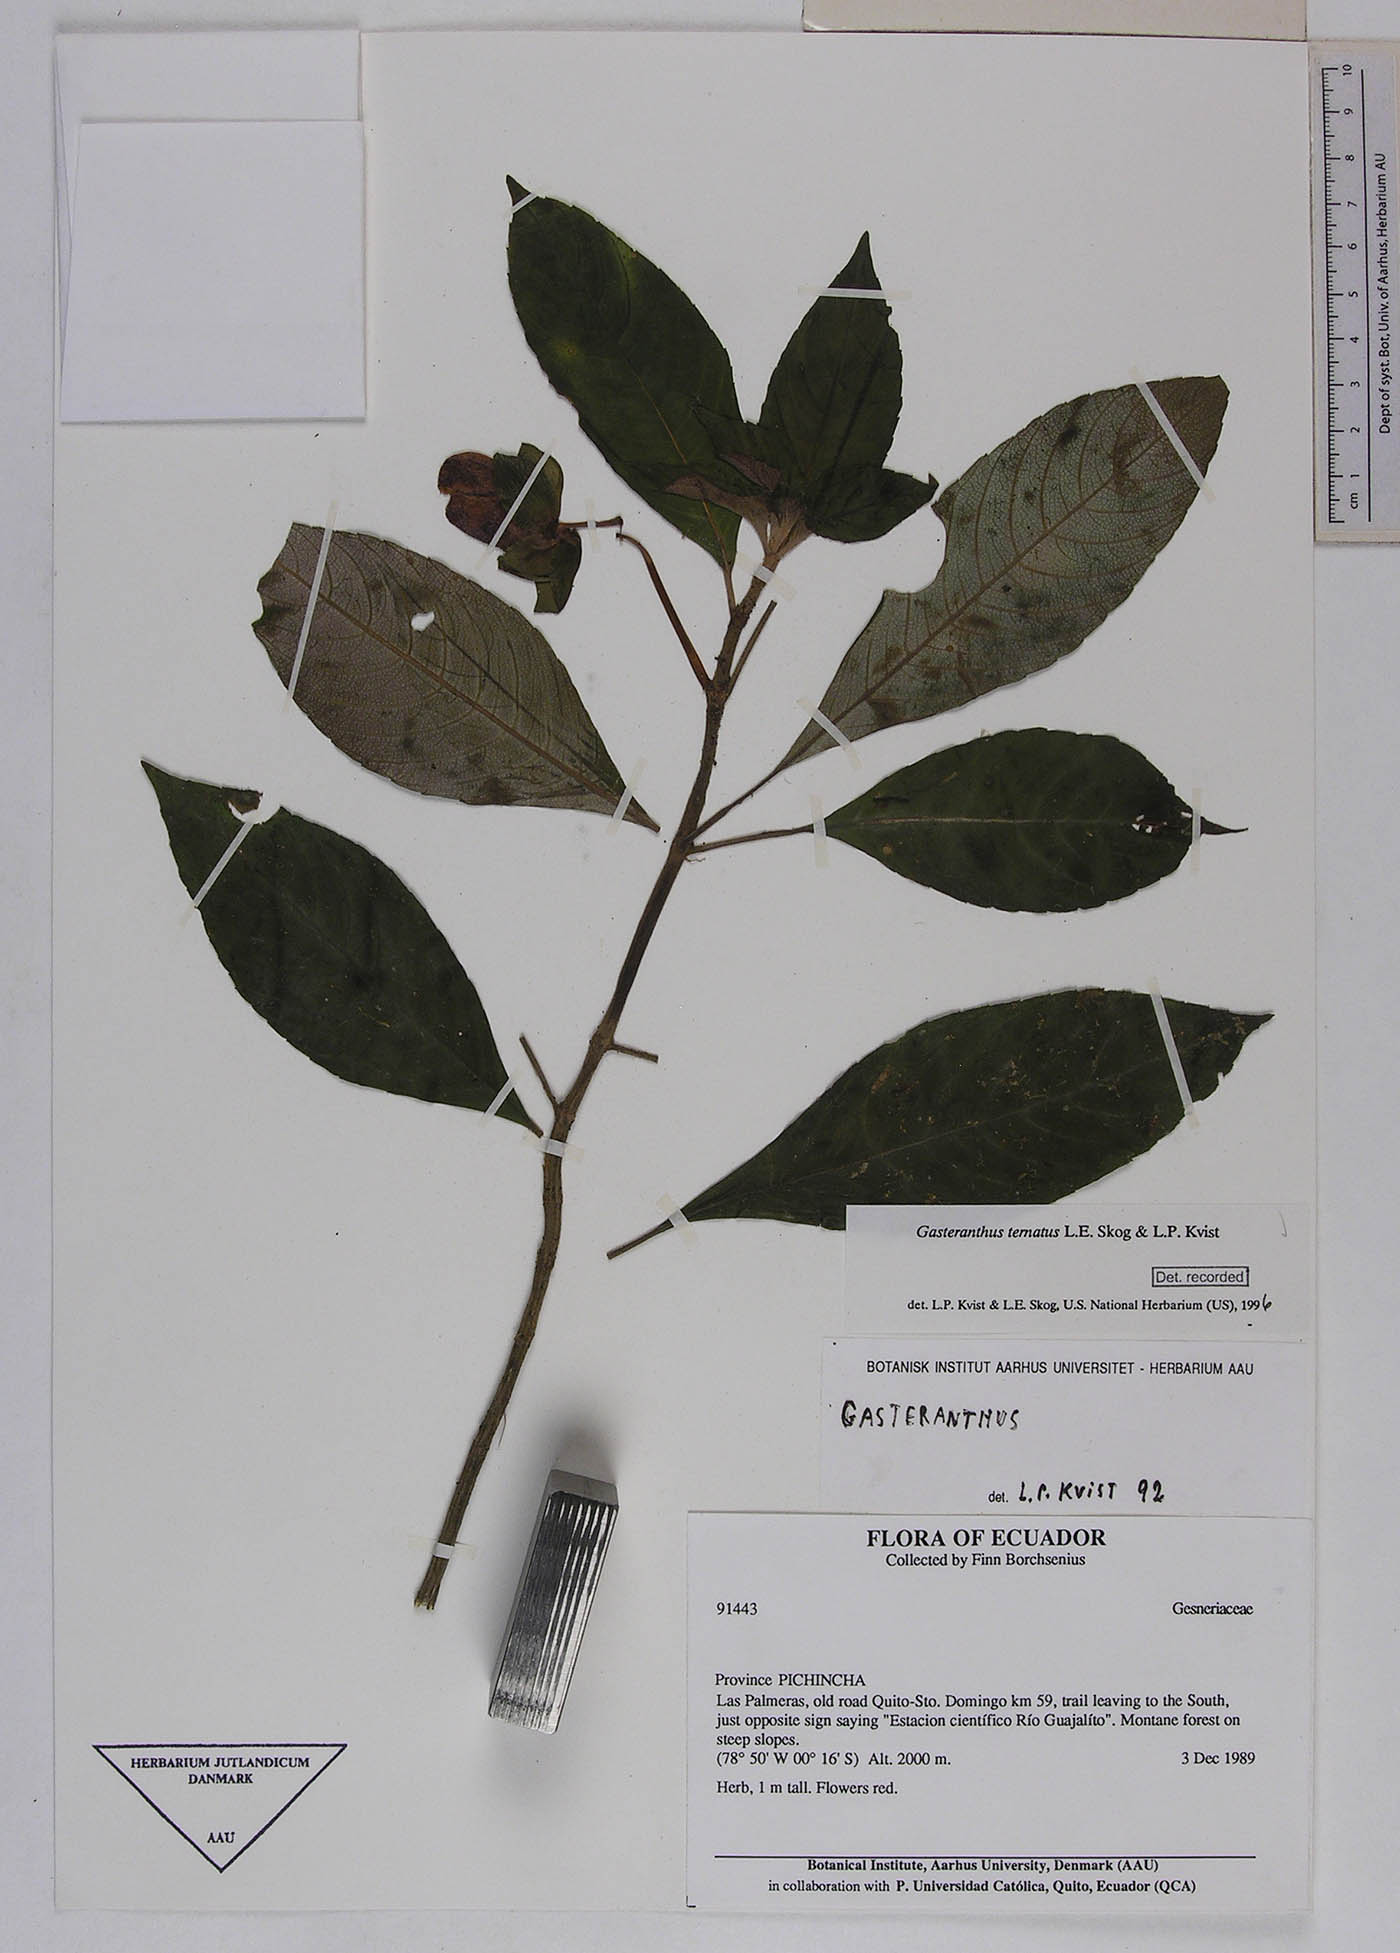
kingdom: Plantae
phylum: Tracheophyta
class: Magnoliopsida
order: Lamiales
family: Gesneriaceae
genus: Gasteranthus
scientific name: Gasteranthus ternatus
